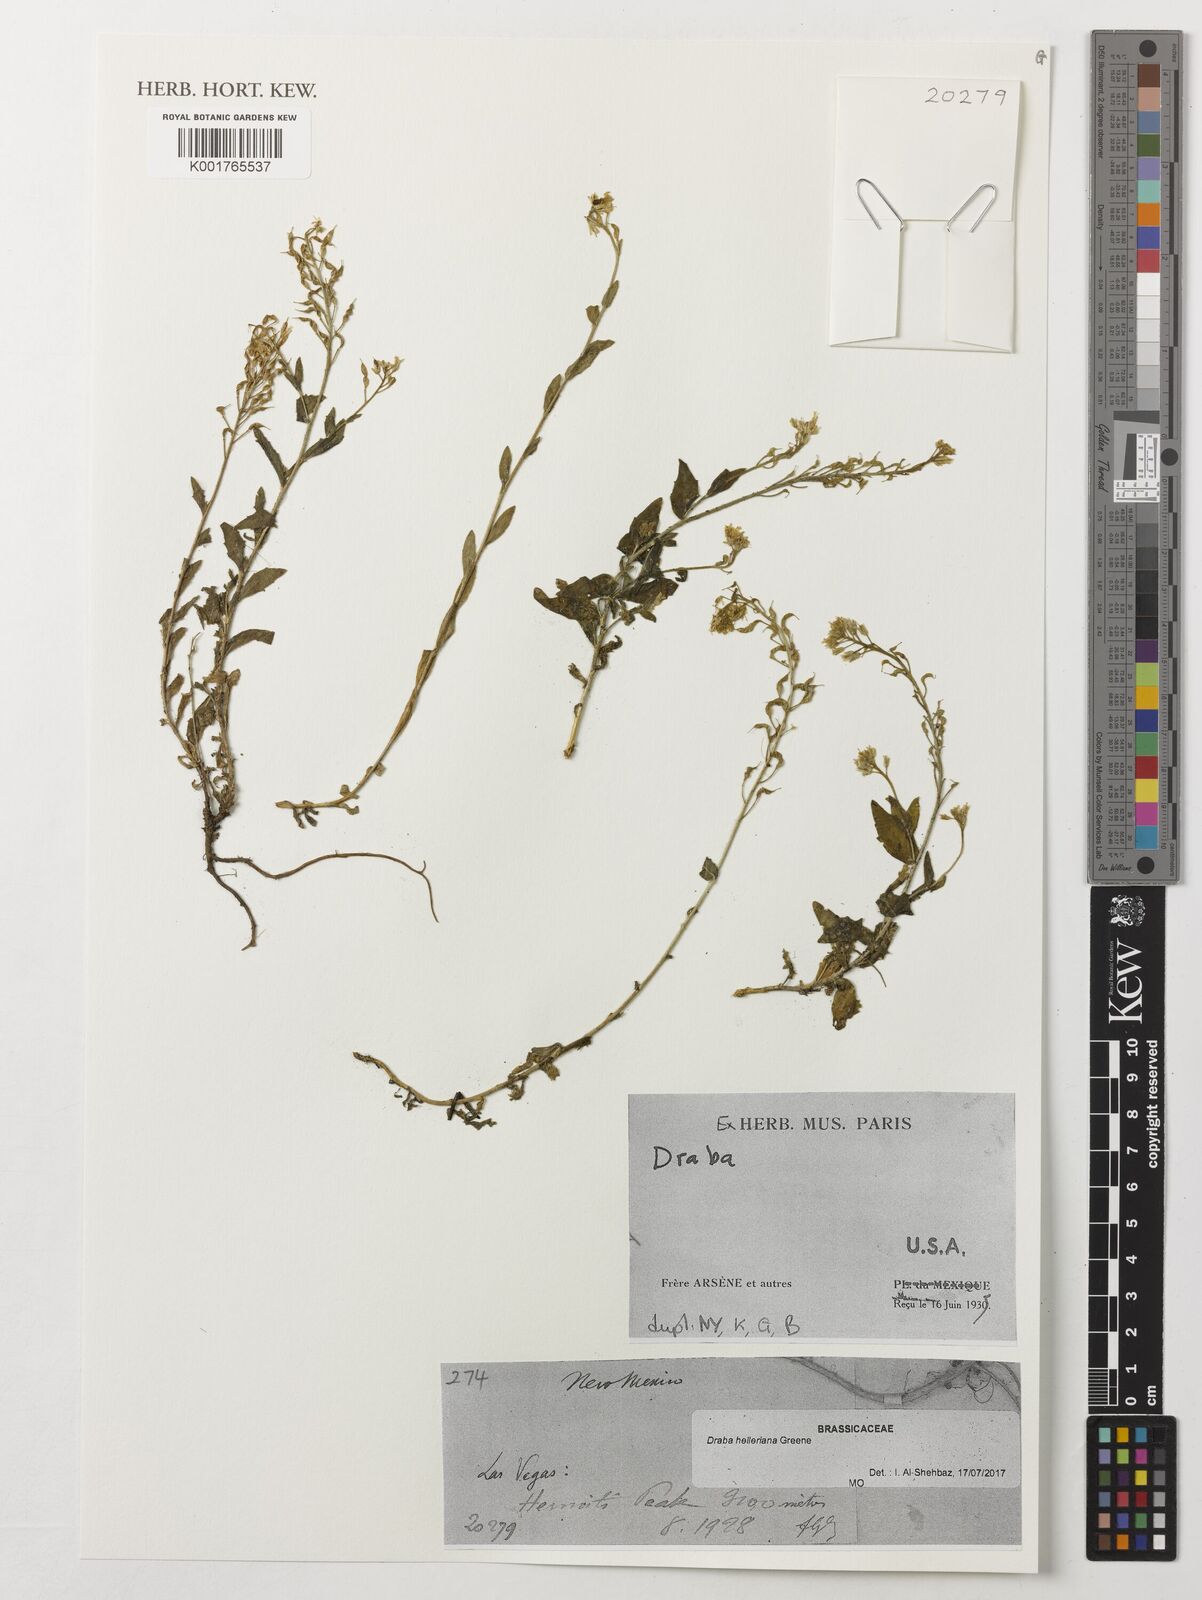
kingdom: Plantae
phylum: Tracheophyta
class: Magnoliopsida
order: Brassicales
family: Brassicaceae
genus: Draba
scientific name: Draba helleriana
